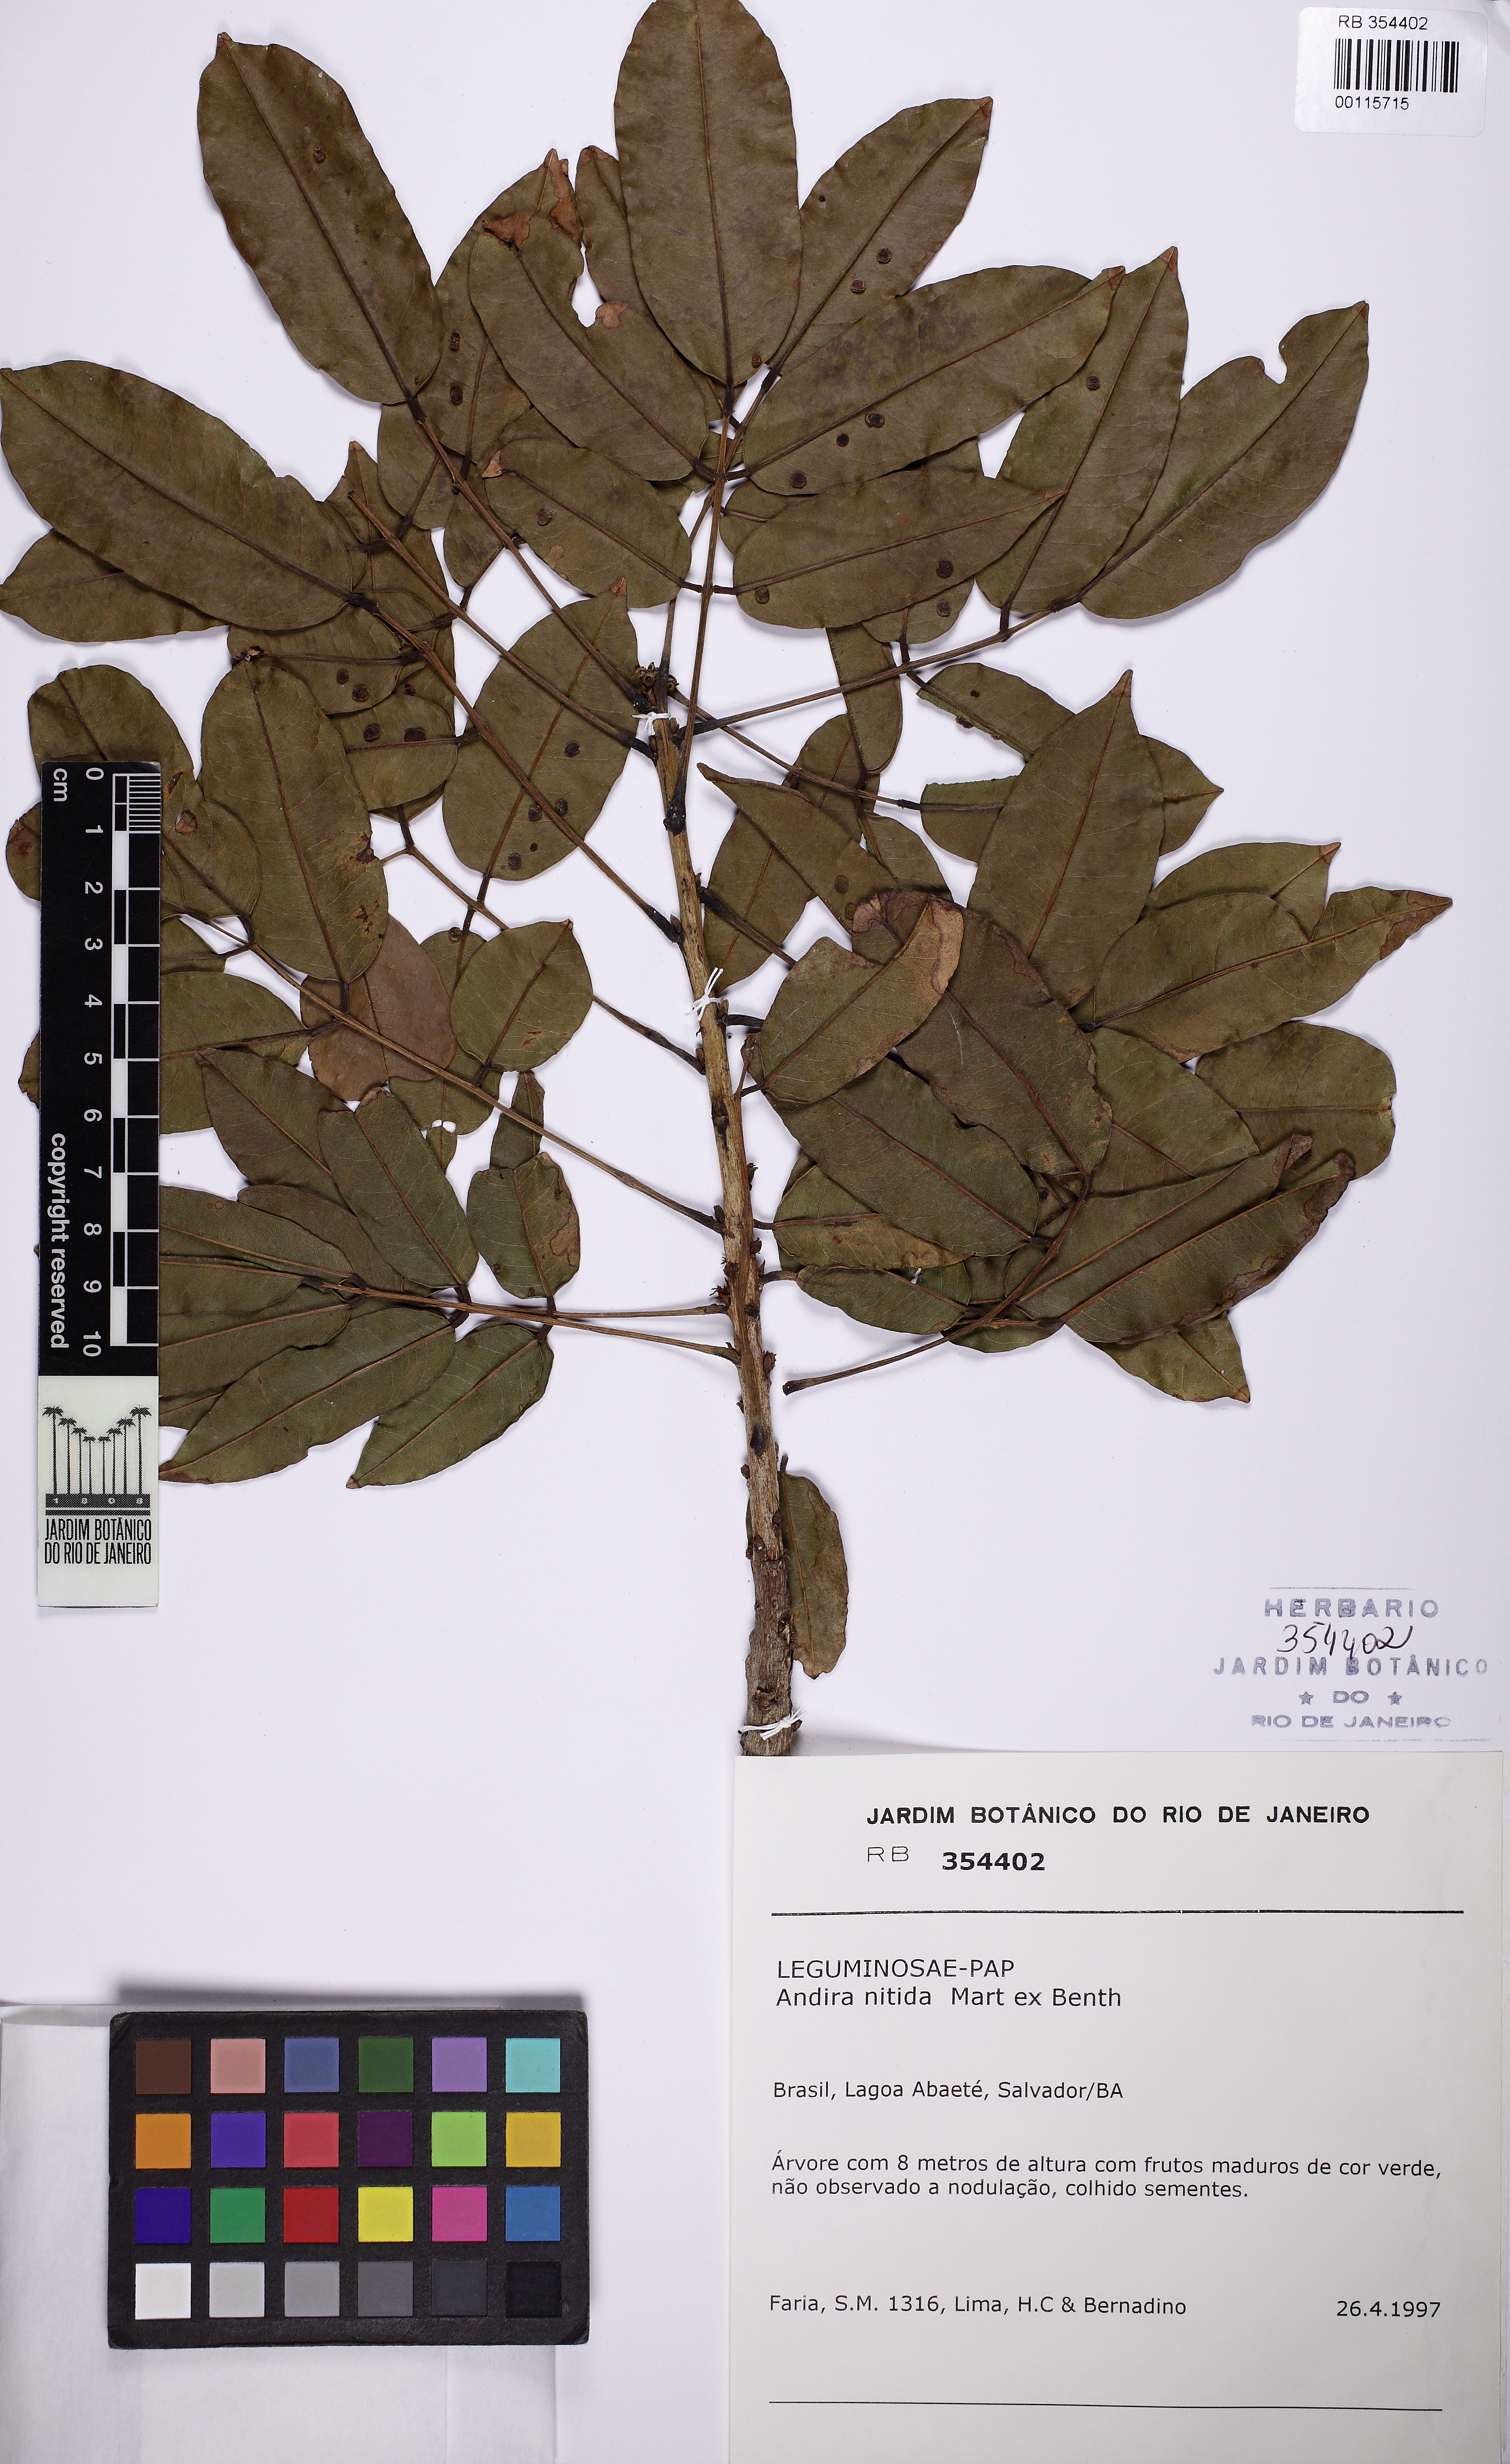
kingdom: Plantae
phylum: Tracheophyta
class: Magnoliopsida
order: Fabales
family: Fabaceae
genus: Andira
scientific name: Andira nitida
